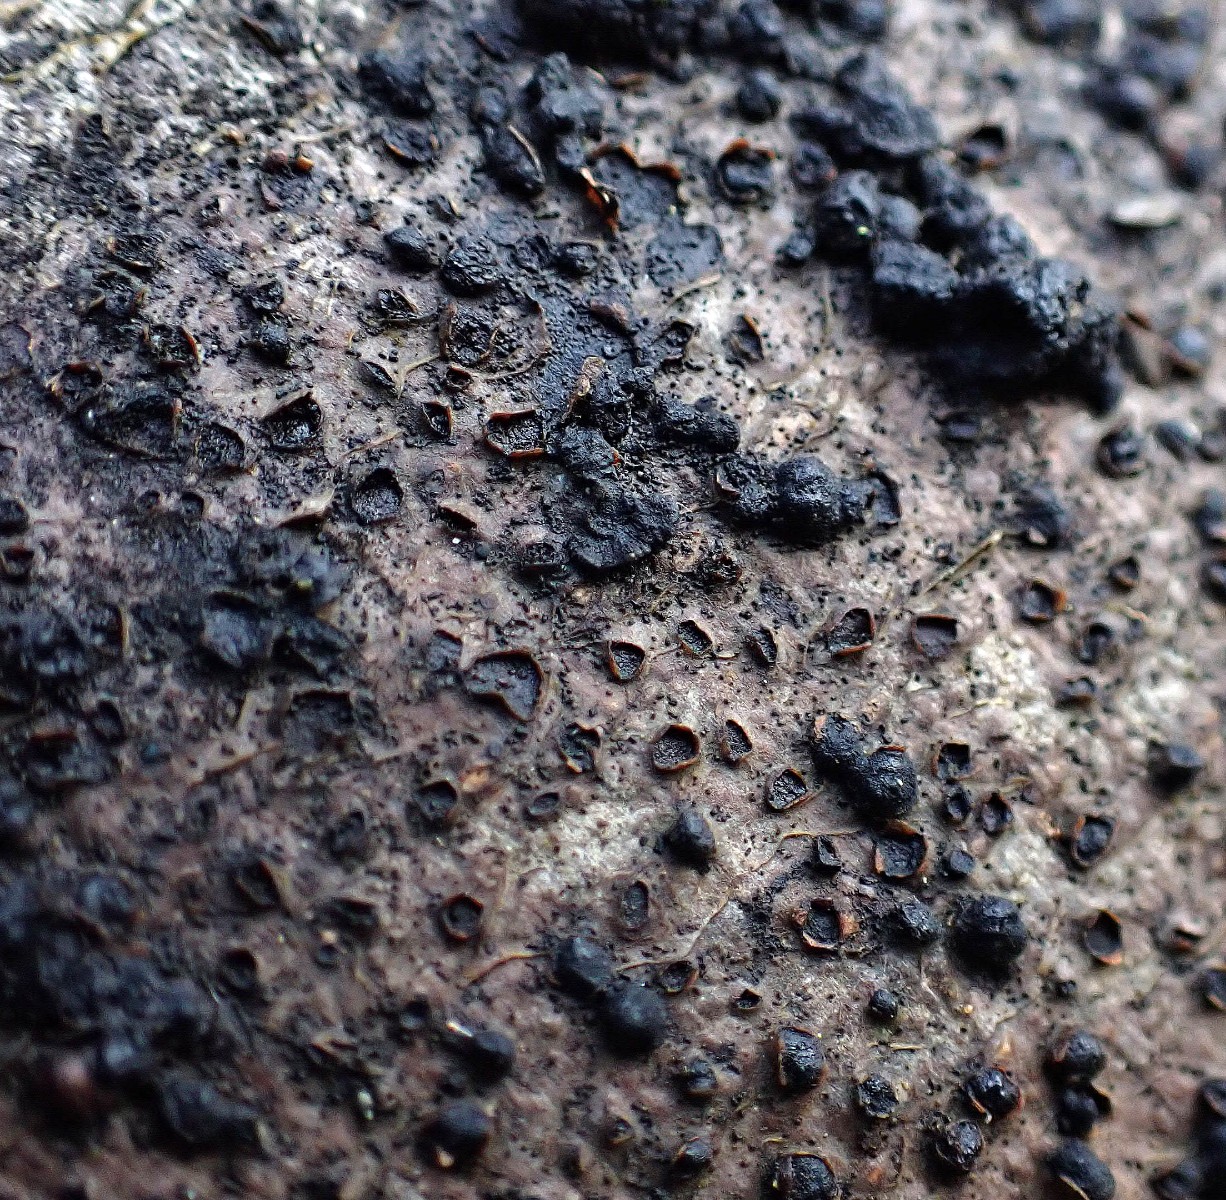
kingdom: Fungi
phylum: Ascomycota
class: Sordariomycetes
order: Xylariales
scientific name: Xylariales
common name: stødsvampordenen
